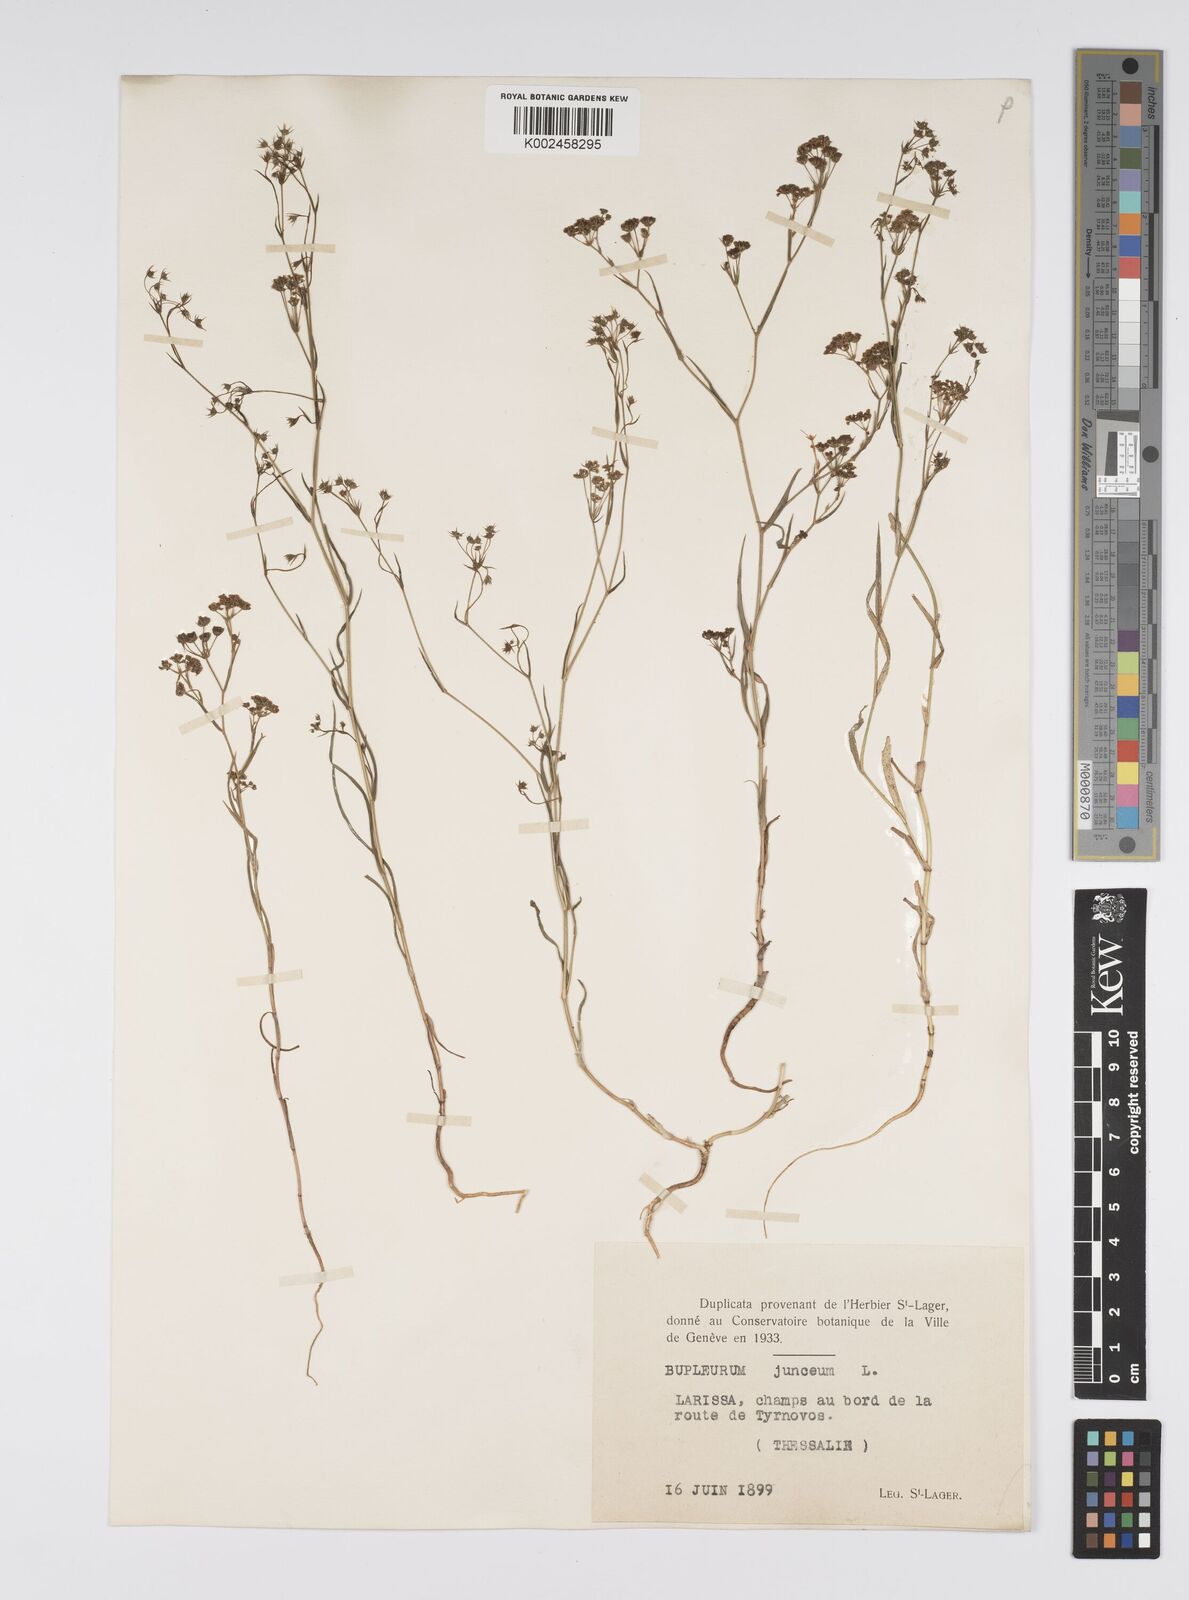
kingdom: Plantae
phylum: Tracheophyta
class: Magnoliopsida
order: Apiales
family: Apiaceae
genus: Bupleurum
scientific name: Bupleurum commutatum
